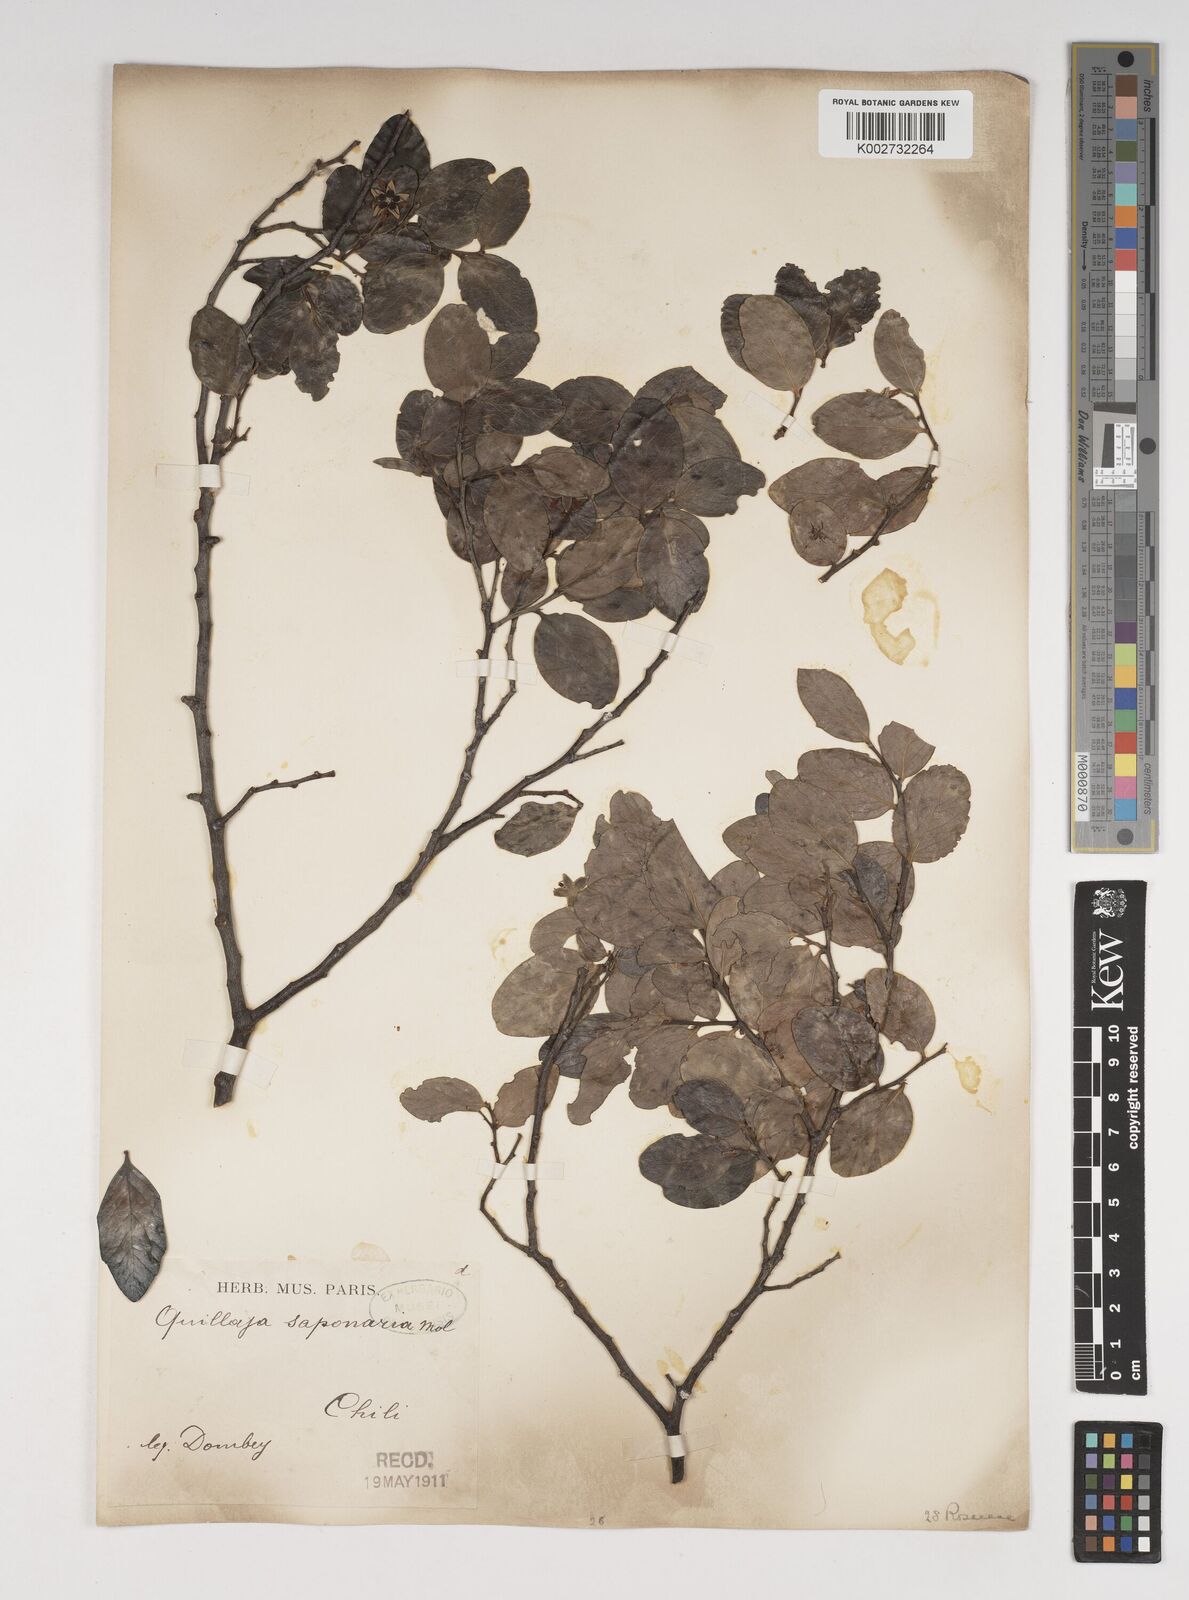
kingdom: Plantae
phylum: Tracheophyta
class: Magnoliopsida
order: Fabales
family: Quillajaceae
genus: Quillaja
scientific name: Quillaja saponaria
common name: Murillo's-bark
